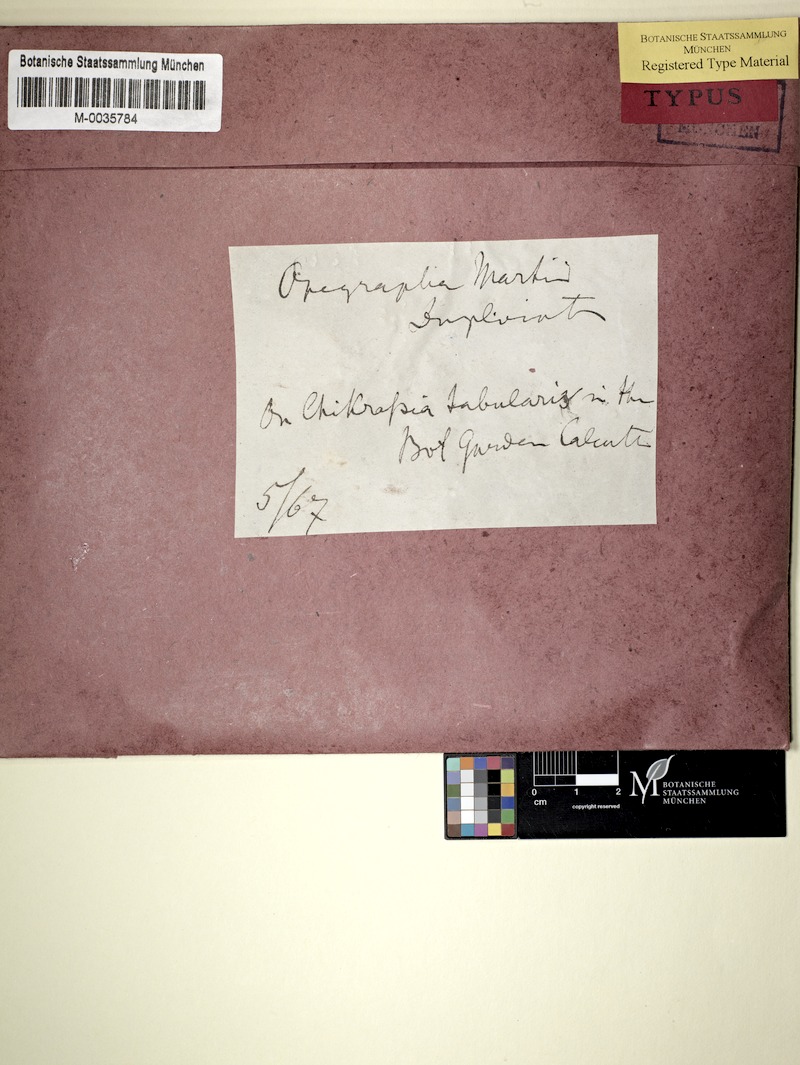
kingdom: Fungi
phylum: Ascomycota
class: Arthoniomycetes
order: Arthoniales
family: Lecanographaceae
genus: Lecanographa
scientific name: Lecanographa martii
